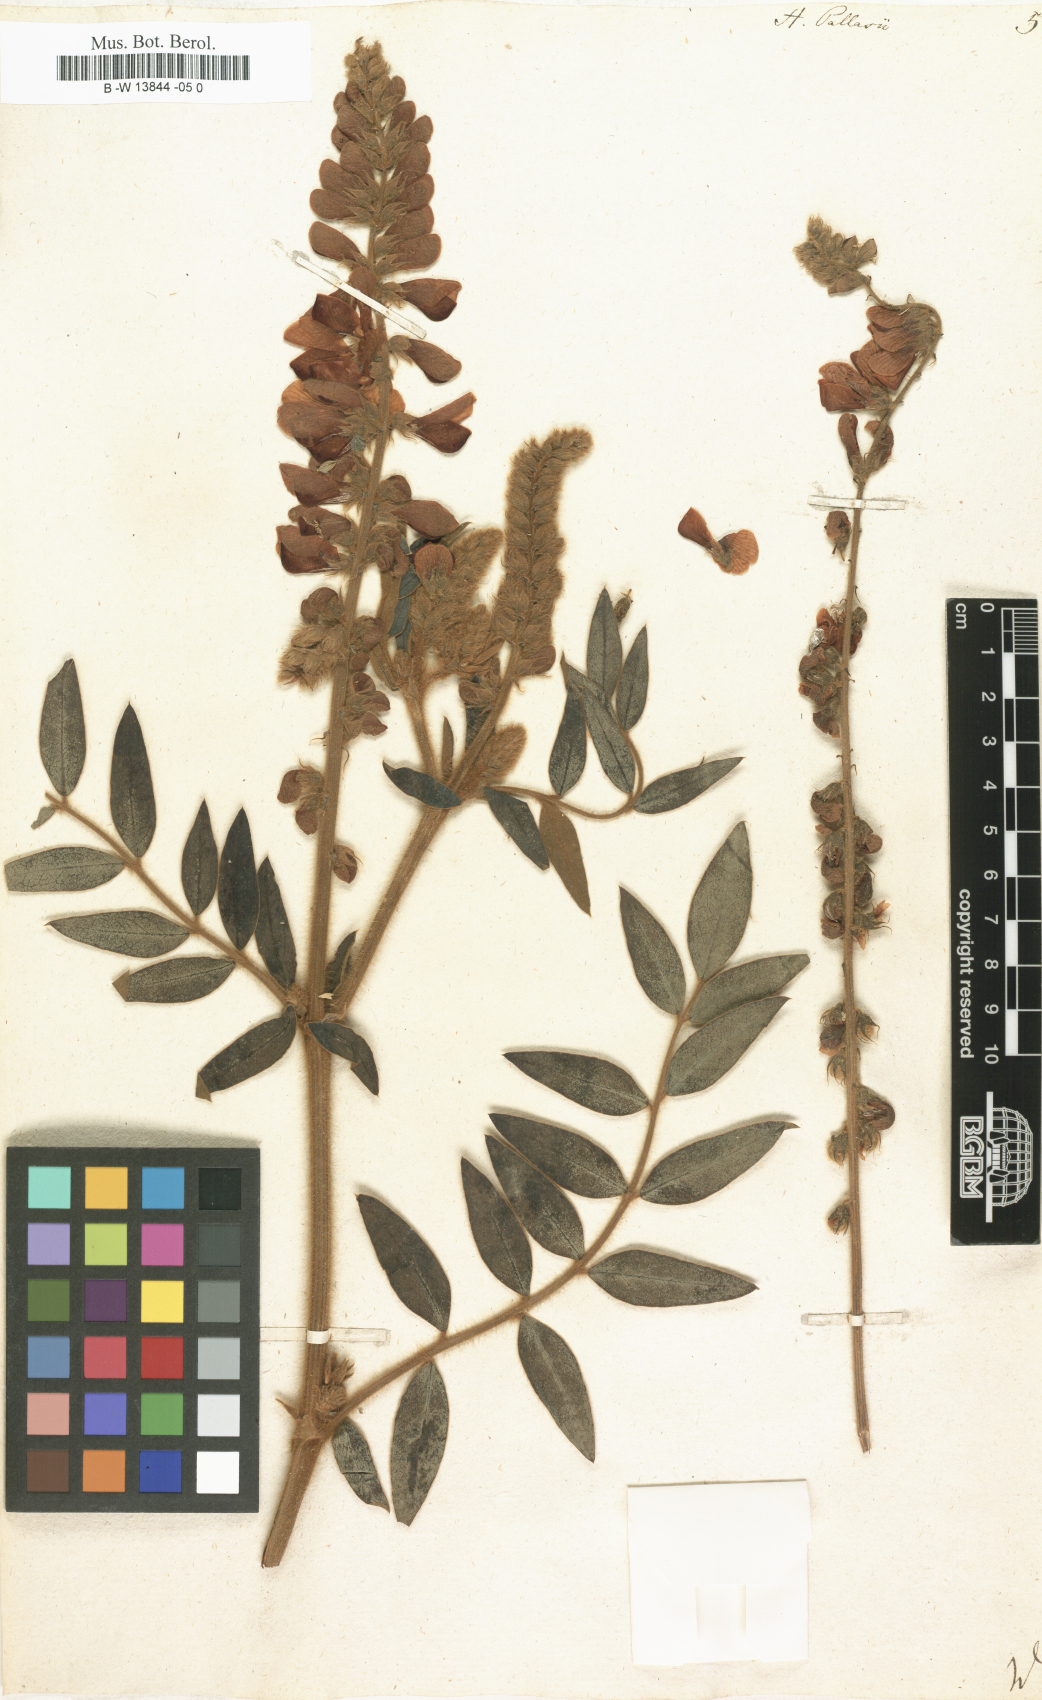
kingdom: Plantae
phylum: Tracheophyta
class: Magnoliopsida
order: Fabales
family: Fabaceae
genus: Onobrychis
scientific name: Onobrychis pallasii
